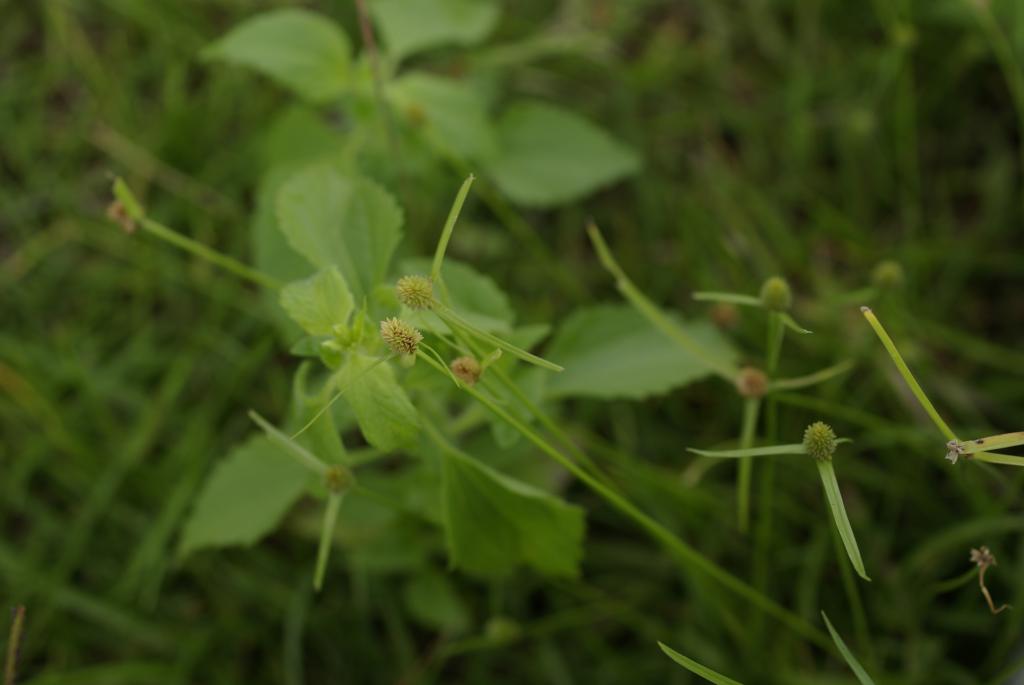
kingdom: Plantae
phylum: Tracheophyta
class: Liliopsida
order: Poales
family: Cyperaceae
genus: Cyperus
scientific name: Cyperus brevifolius
